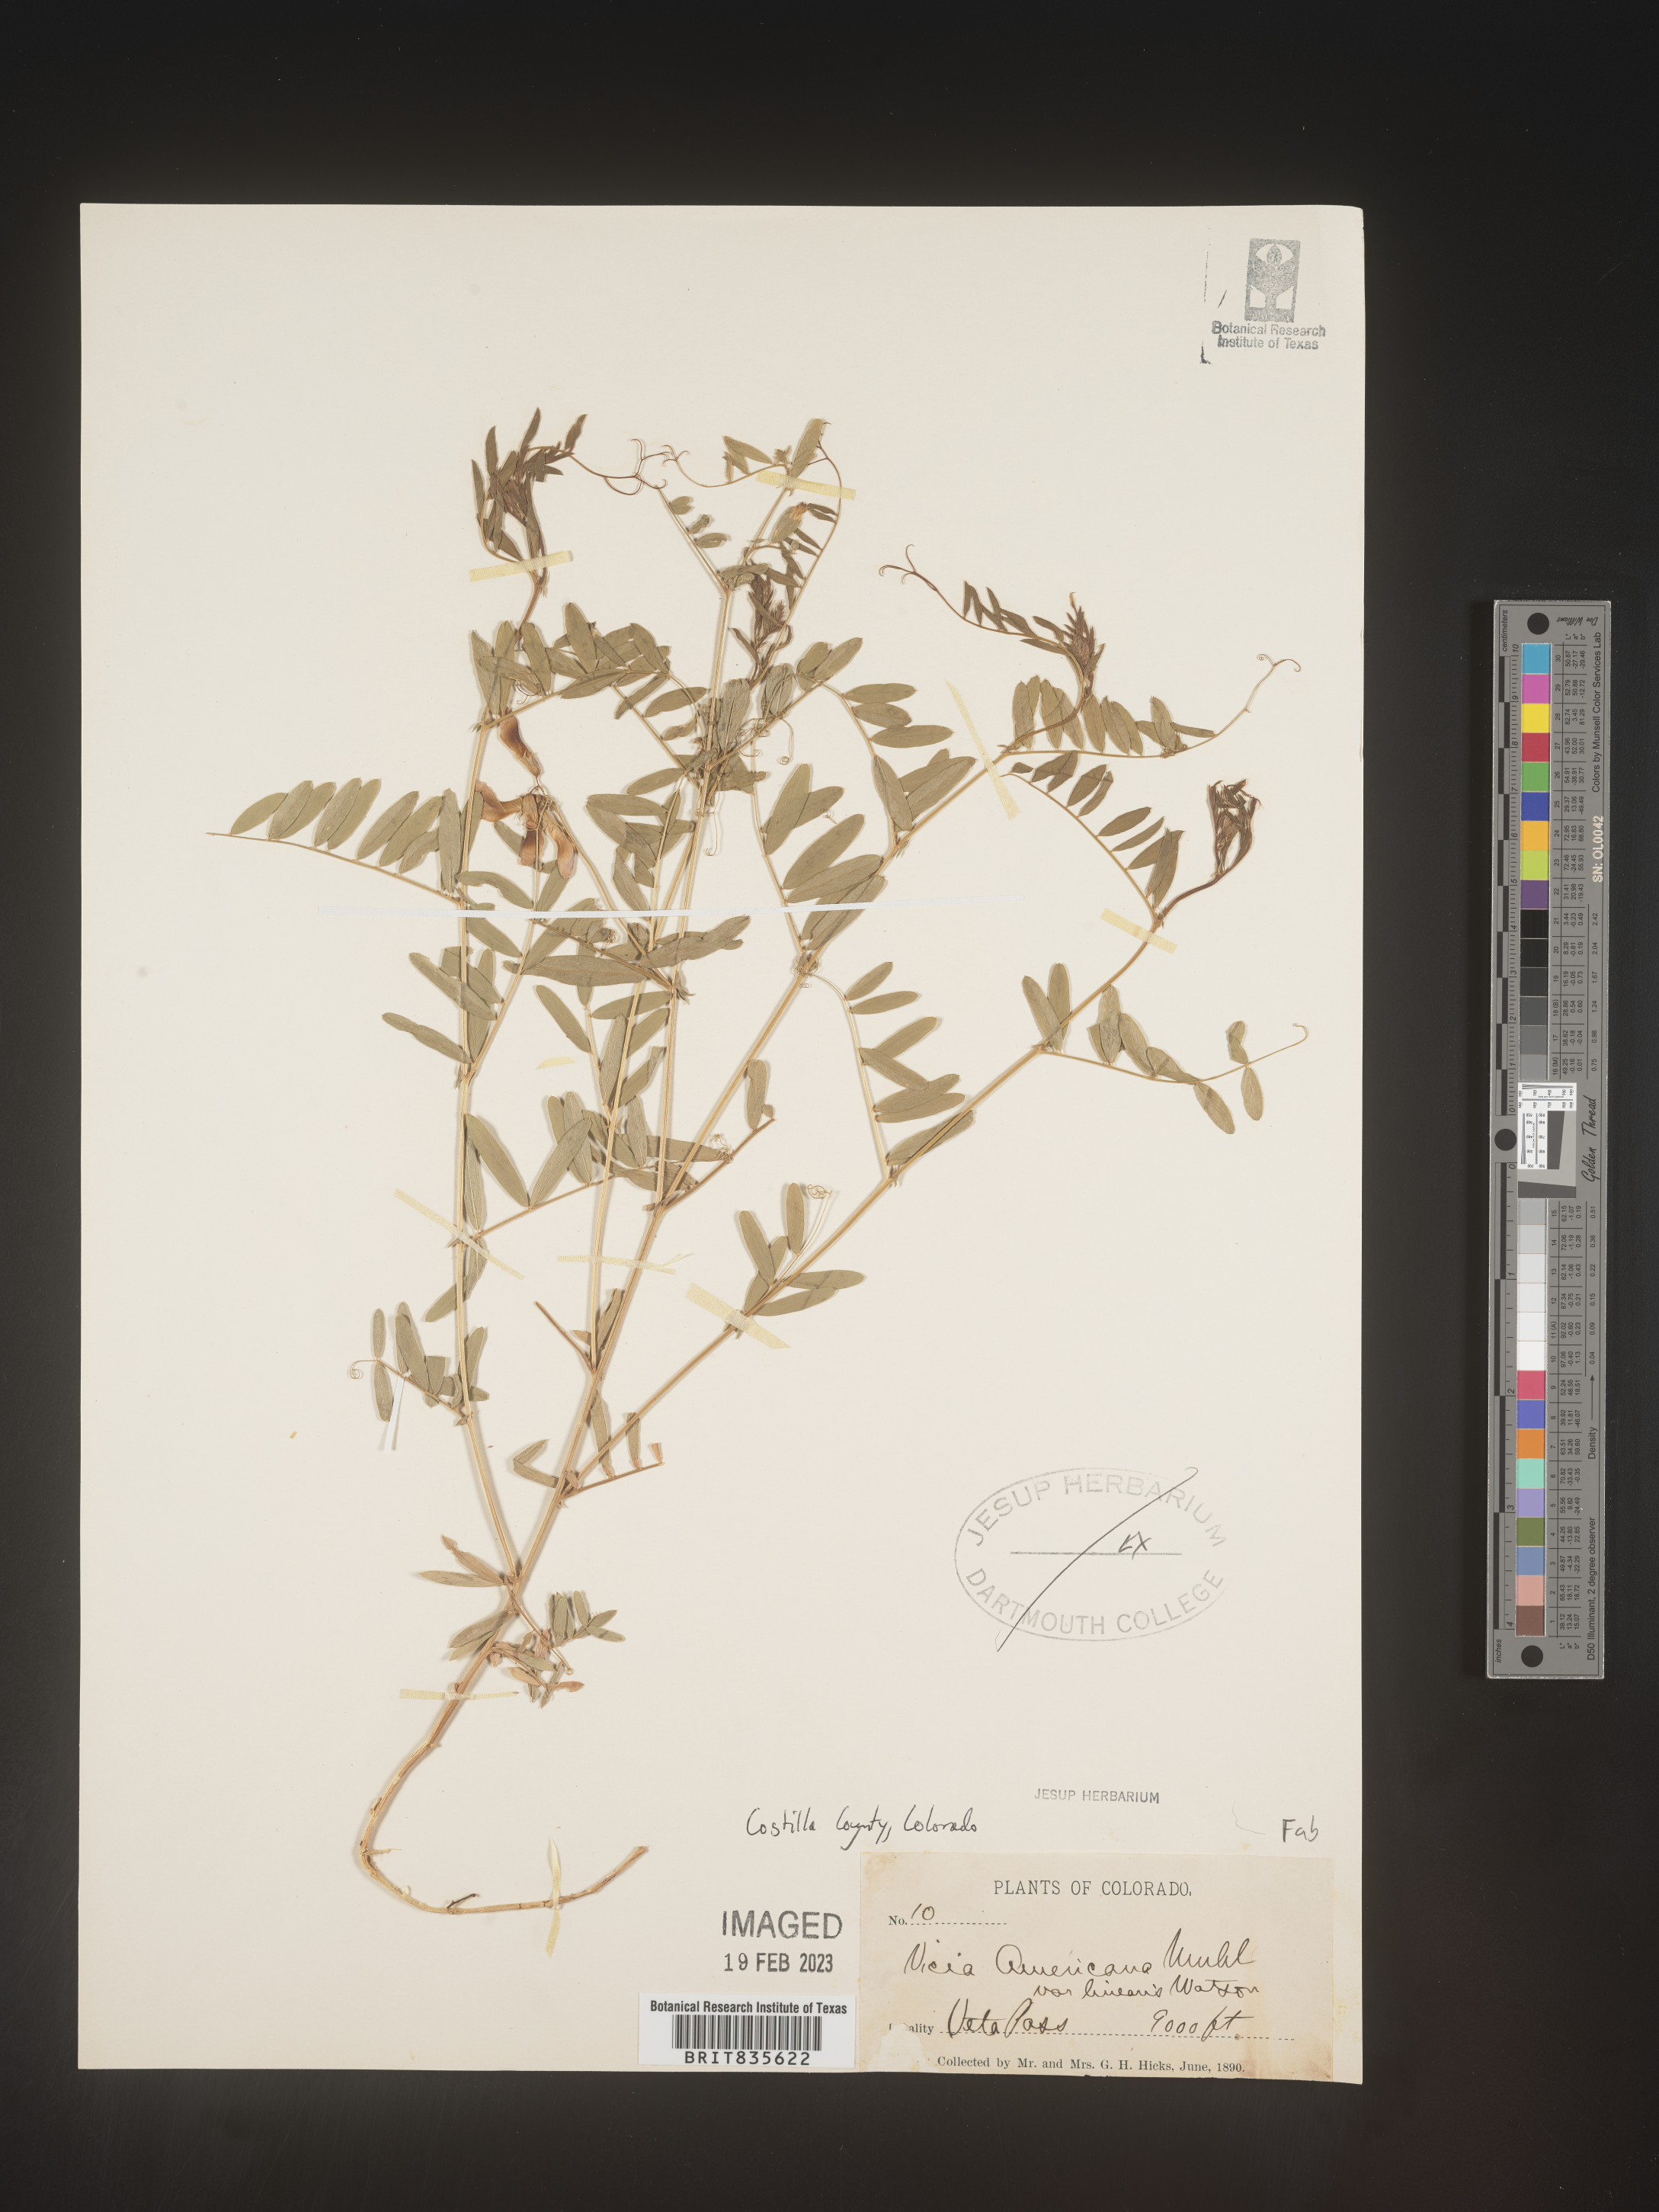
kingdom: Plantae
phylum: Tracheophyta
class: Magnoliopsida
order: Fabales
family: Fabaceae
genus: Vicia
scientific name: Vicia americana
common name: American vetch
